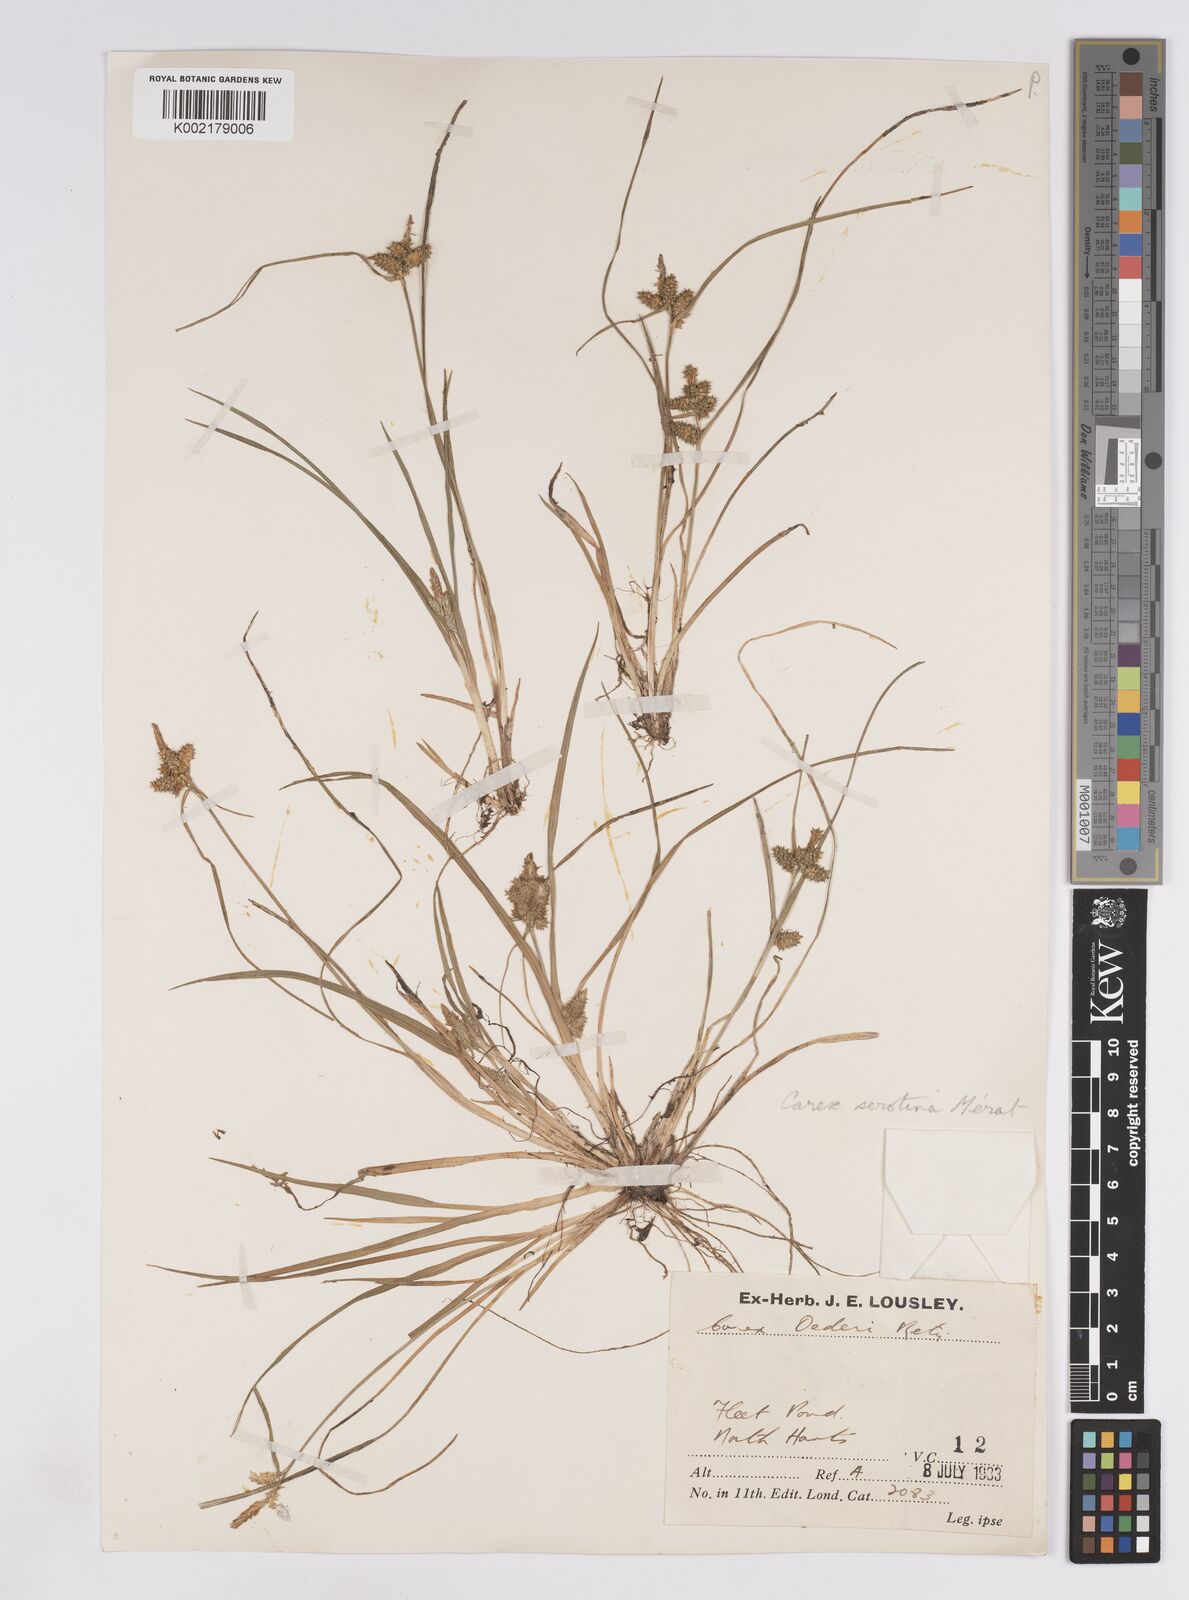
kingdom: Plantae
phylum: Tracheophyta
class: Liliopsida
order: Poales
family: Cyperaceae
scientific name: Cyperaceae
